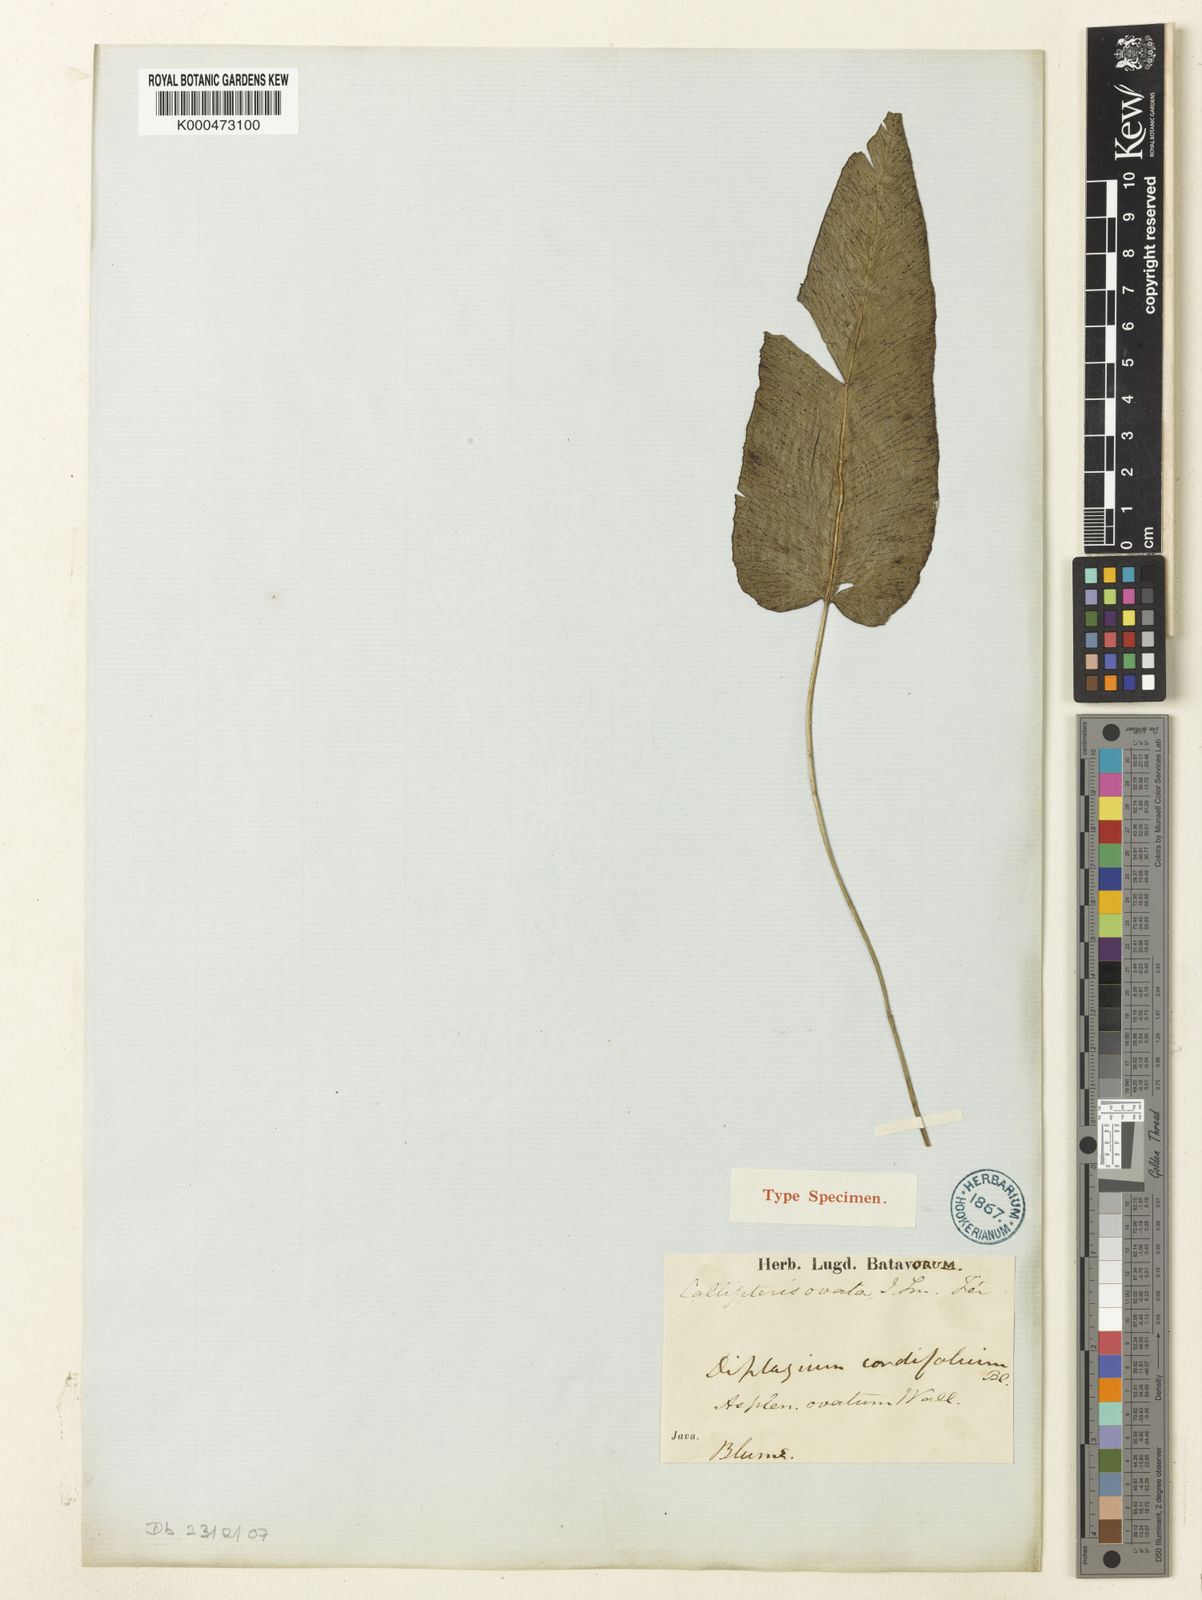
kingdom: Plantae
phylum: Tracheophyta
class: Polypodiopsida
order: Polypodiales
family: Athyriaceae
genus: Diplazium
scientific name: Diplazium cordifolium
